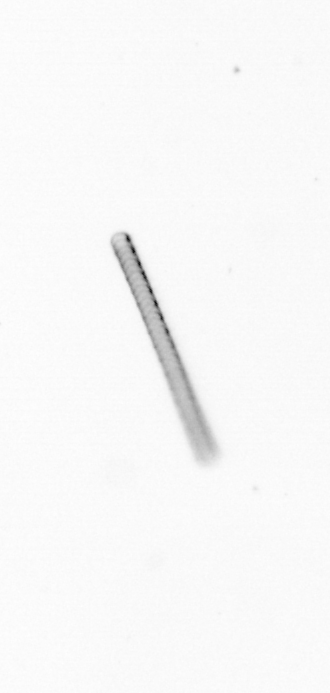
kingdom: Chromista
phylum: Ochrophyta
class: Bacillariophyceae
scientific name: Bacillariophyceae
